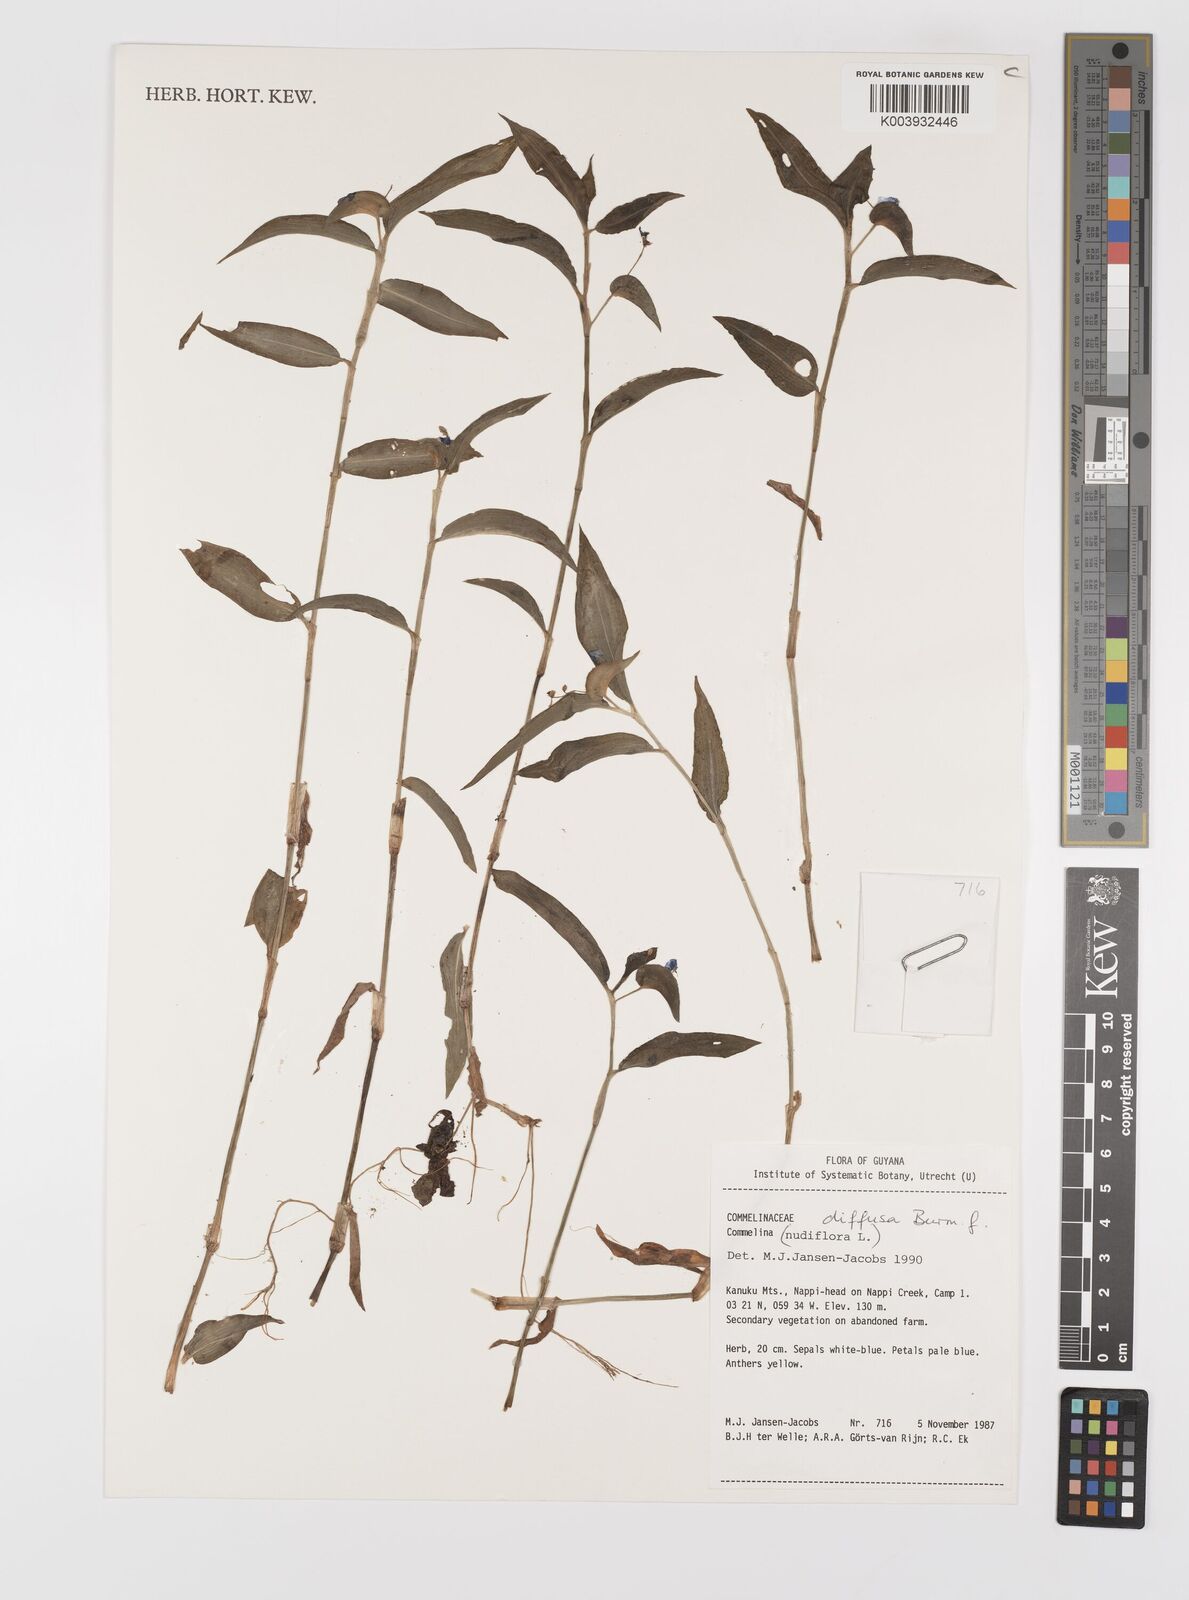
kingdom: Plantae
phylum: Tracheophyta
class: Liliopsida
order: Commelinales
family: Commelinaceae
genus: Commelina
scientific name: Commelina diffusa
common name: Climbing dayflower
